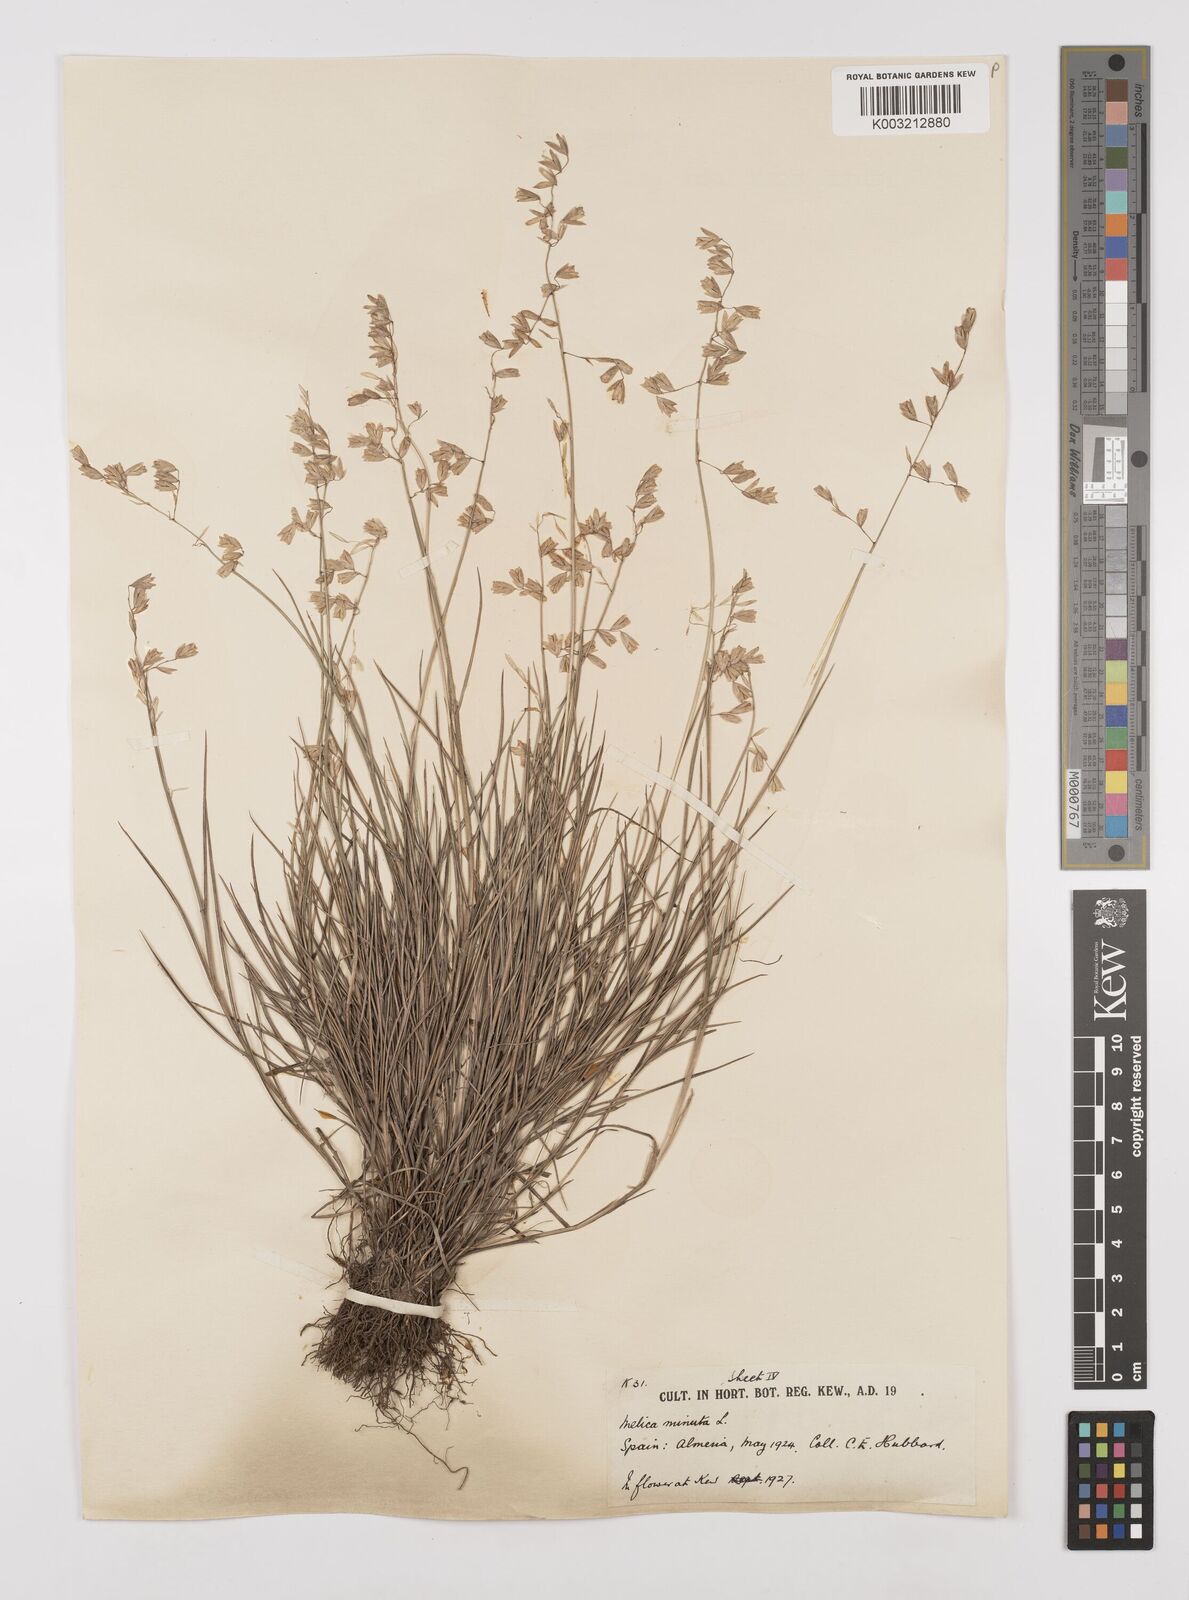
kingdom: Plantae
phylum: Tracheophyta
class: Liliopsida
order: Poales
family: Poaceae
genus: Melica
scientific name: Melica minuta
